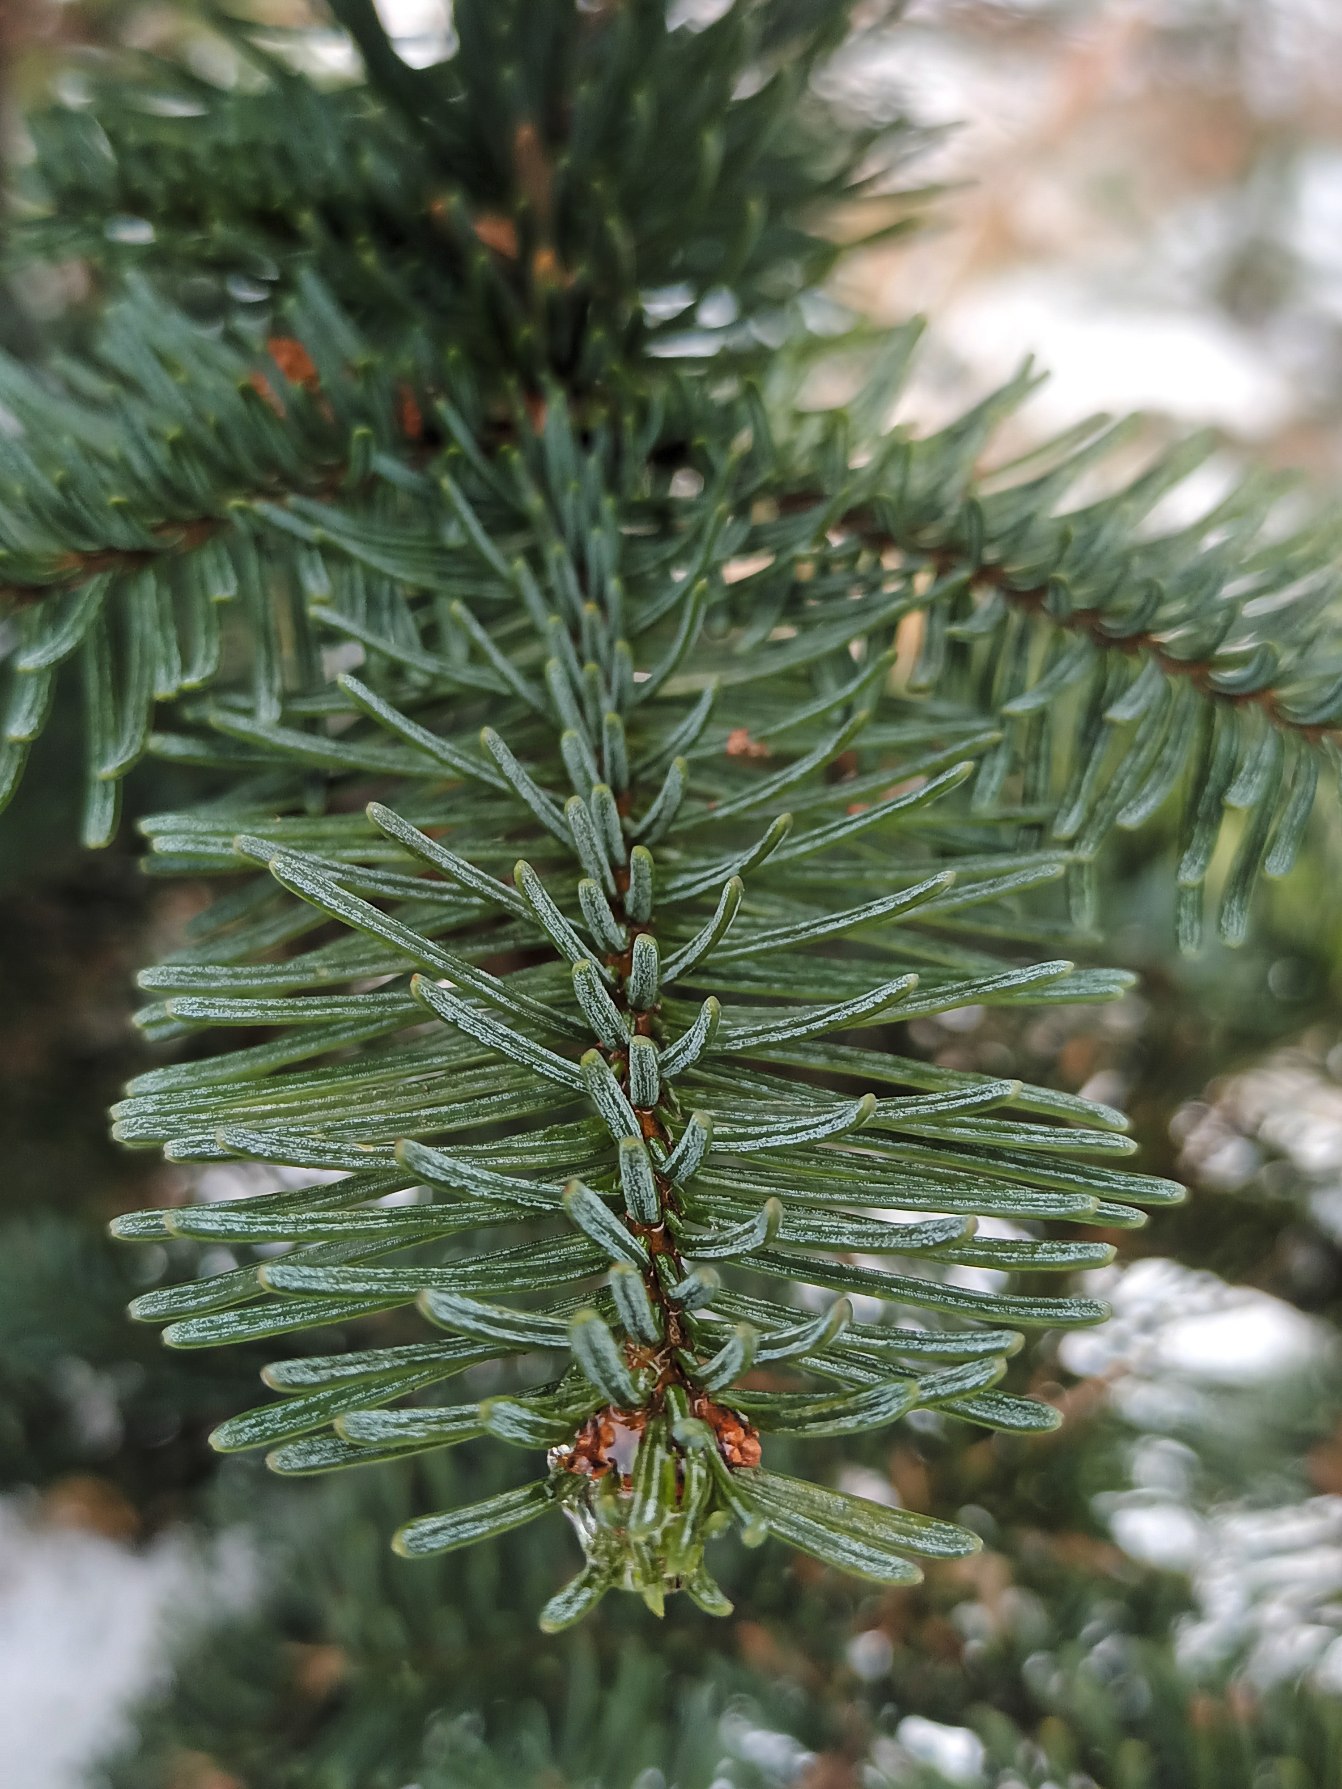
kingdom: Plantae
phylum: Tracheophyta
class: Pinopsida
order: Pinales
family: Pinaceae
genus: Abies
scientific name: Abies procera
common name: Sølvgran
